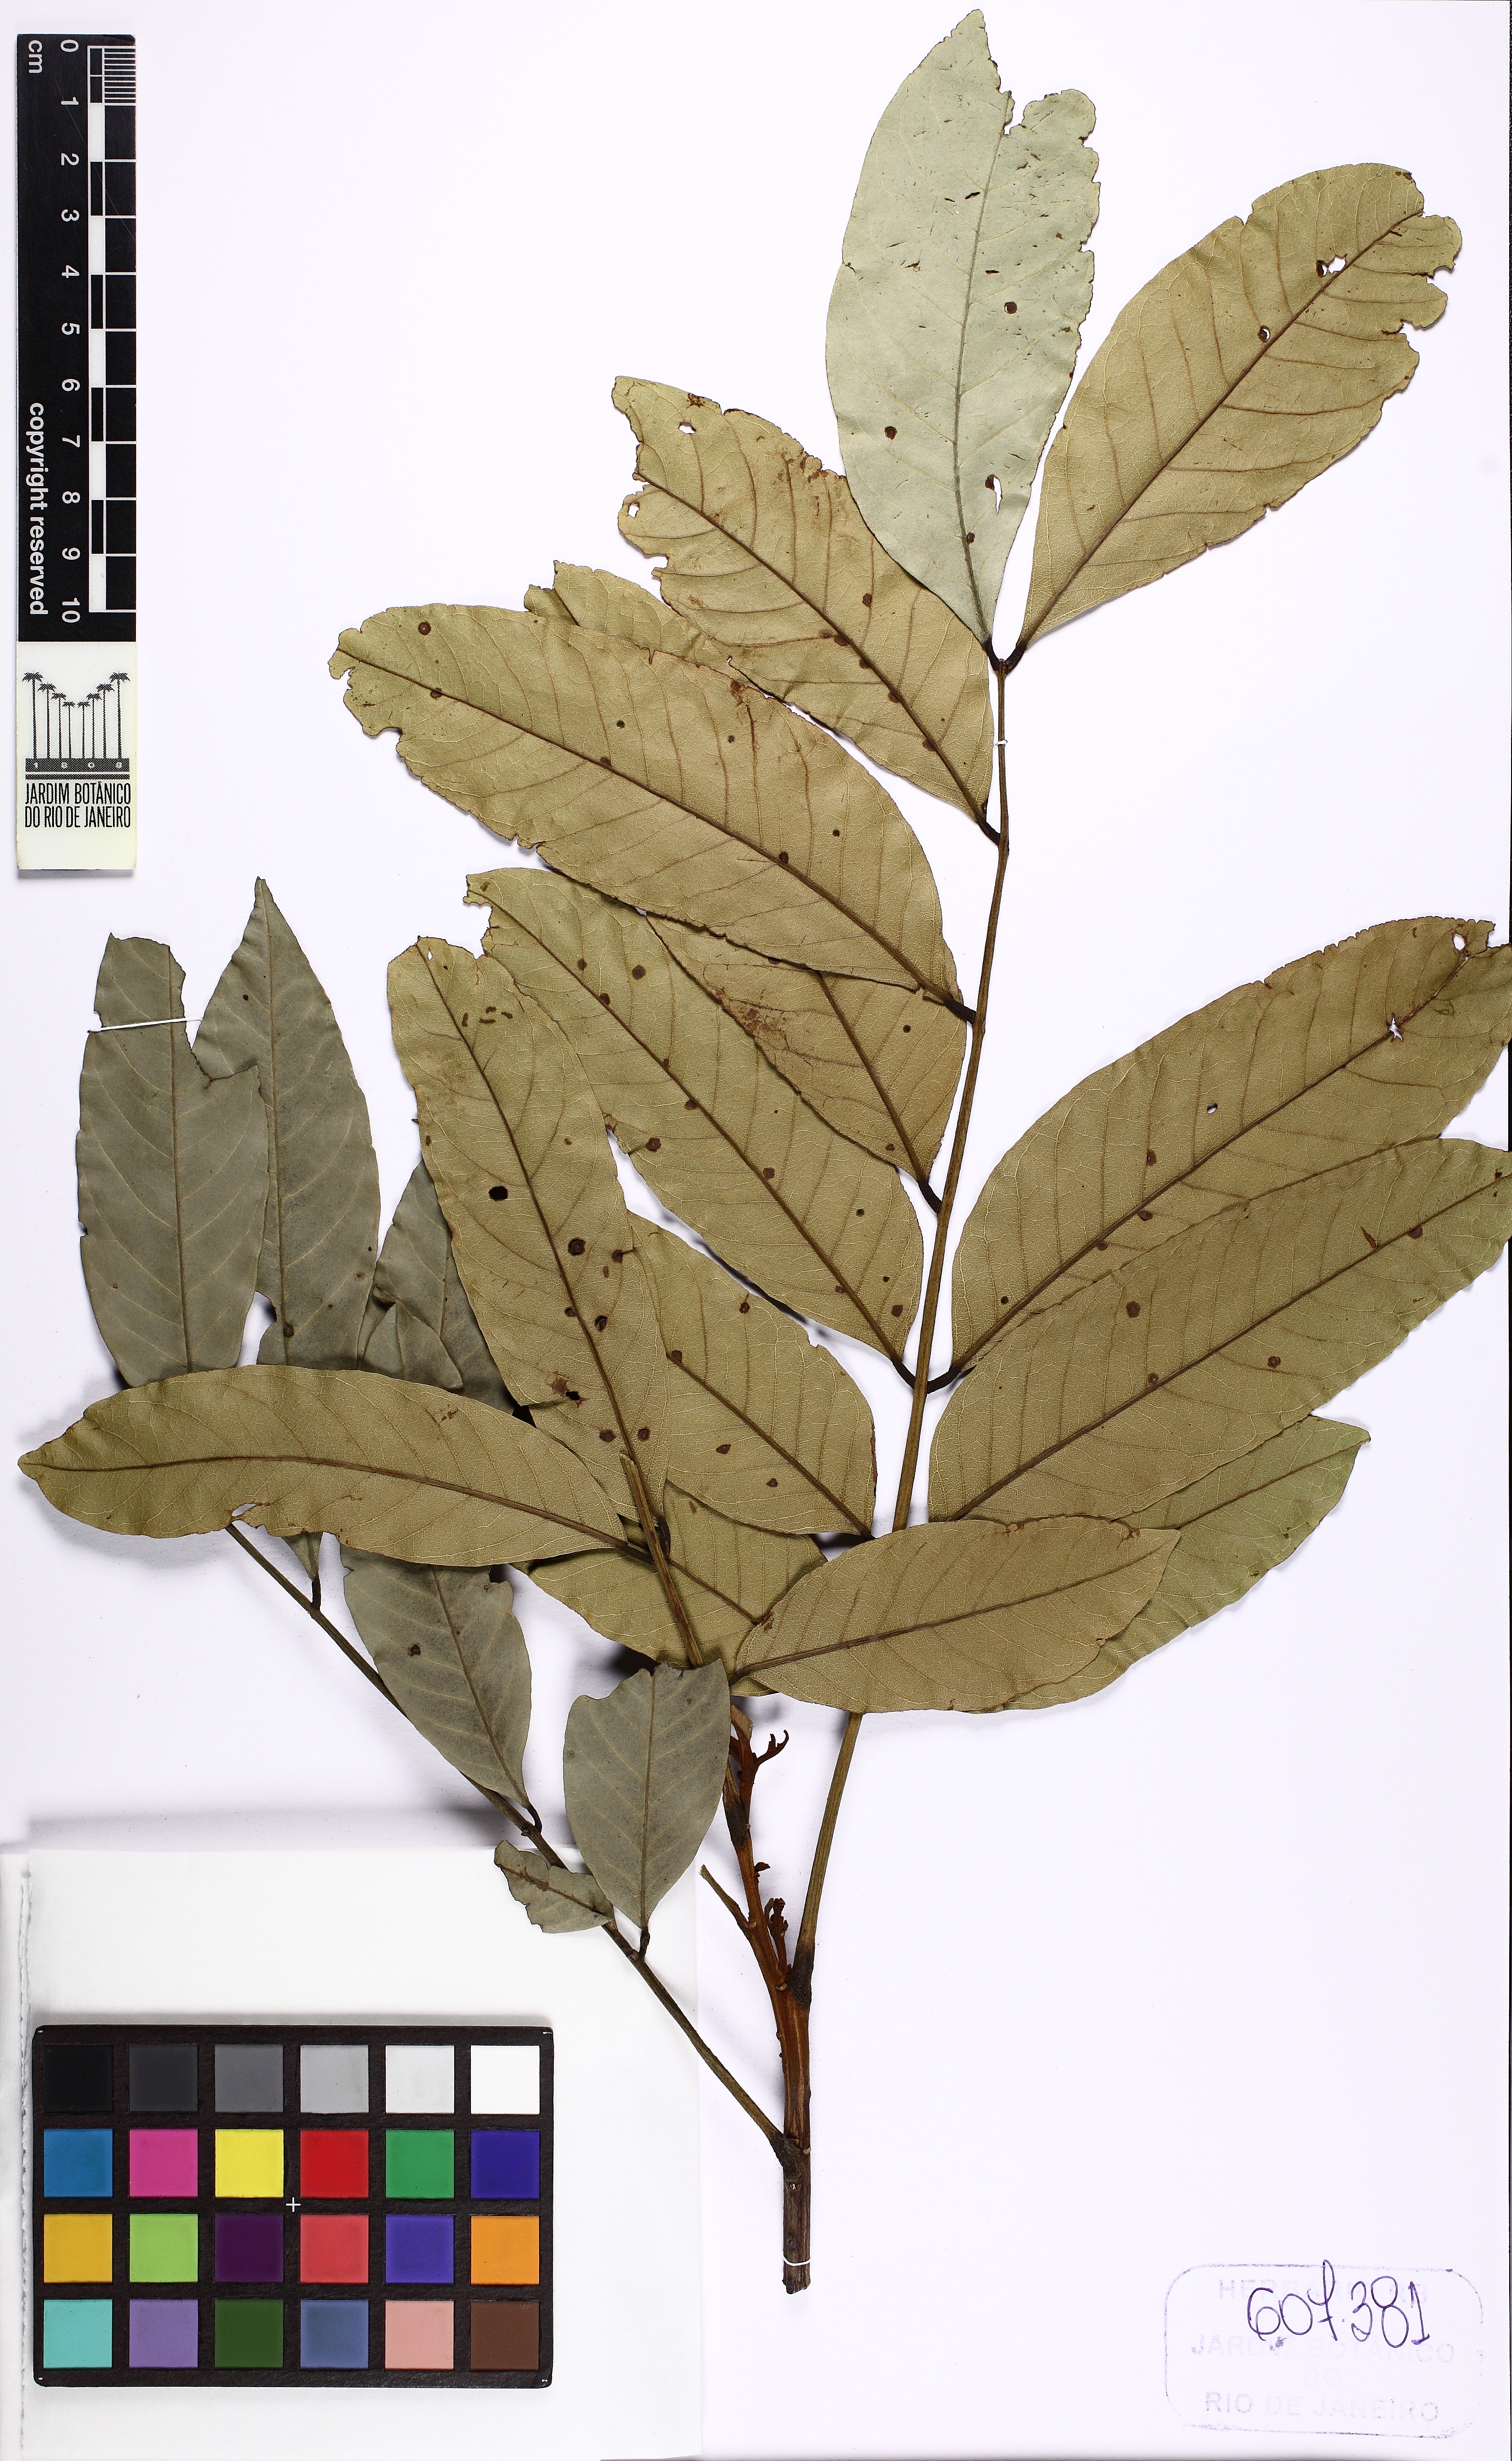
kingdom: Plantae
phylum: Tracheophyta
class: Magnoliopsida
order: Fabales
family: Fabaceae
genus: Tachigali
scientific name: Tachigali pilgeriana
